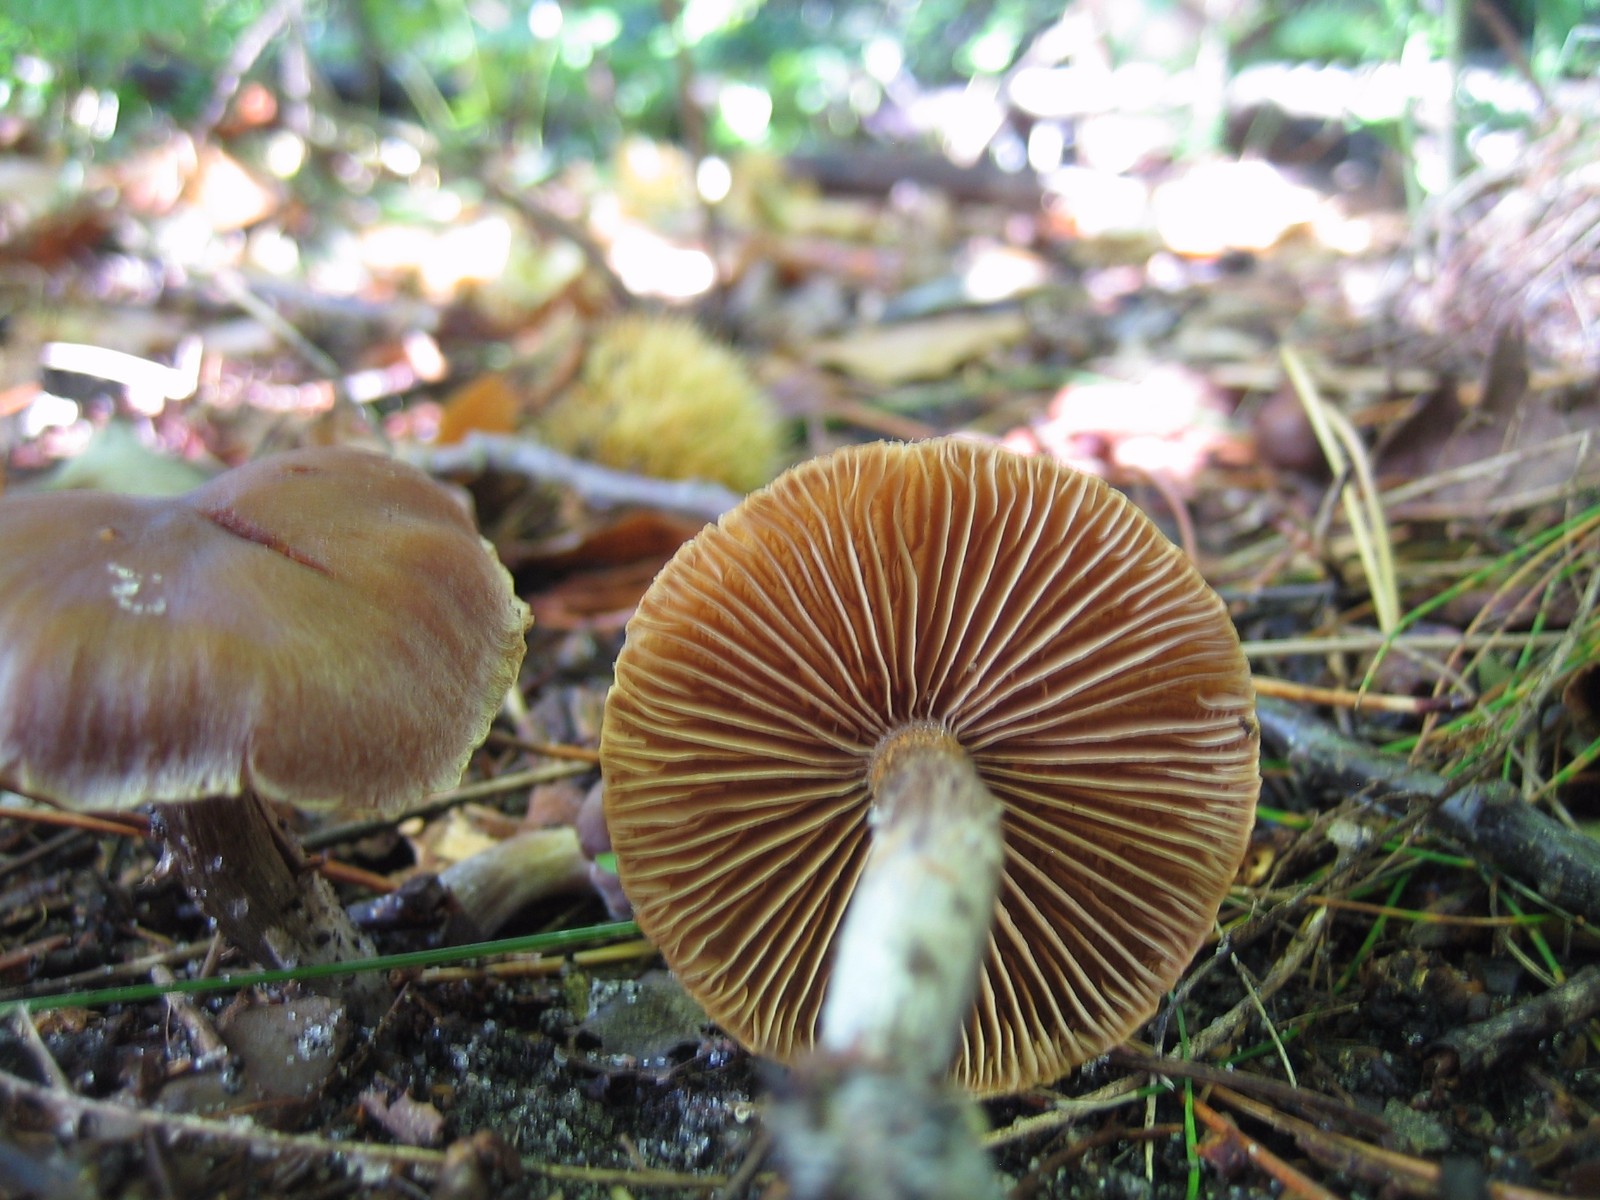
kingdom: Fungi
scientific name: Fungi
